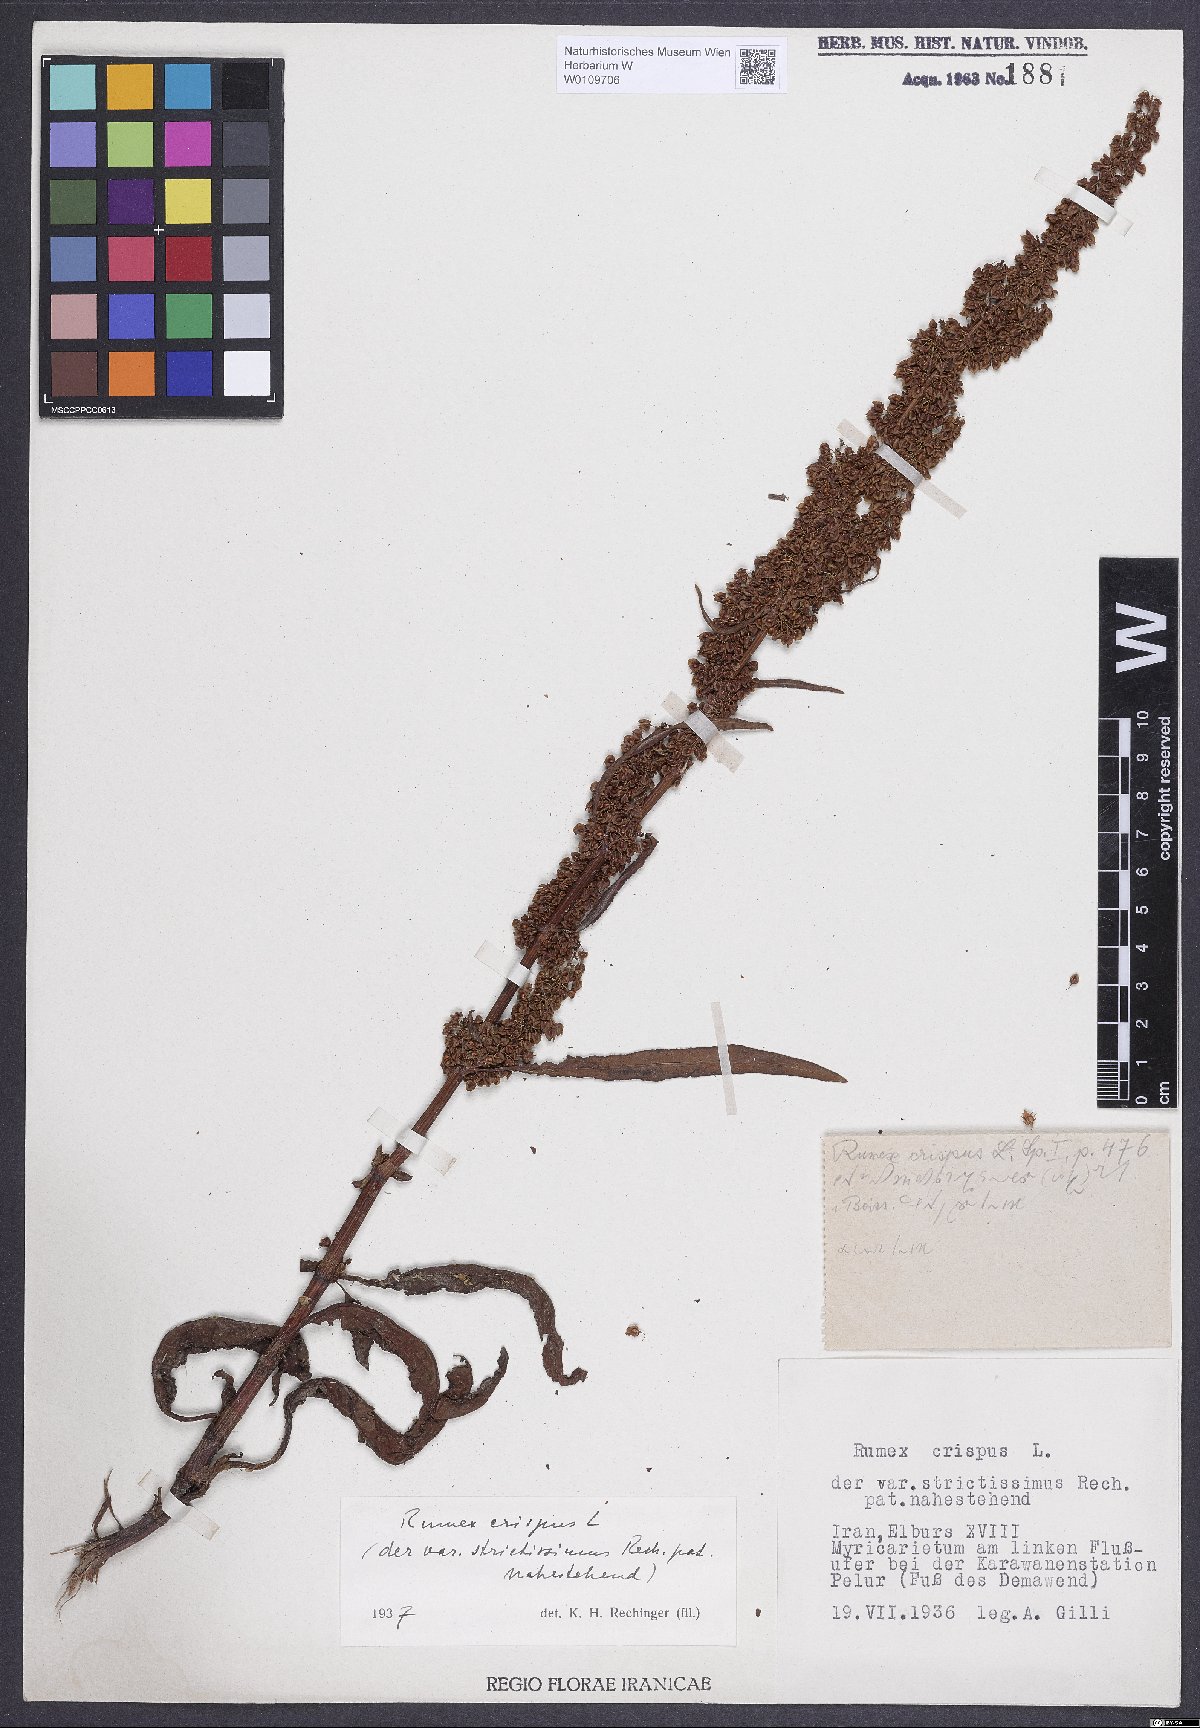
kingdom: Plantae
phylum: Tracheophyta
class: Magnoliopsida
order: Caryophyllales
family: Polygonaceae
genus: Rumex
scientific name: Rumex crispus
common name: Curled dock
